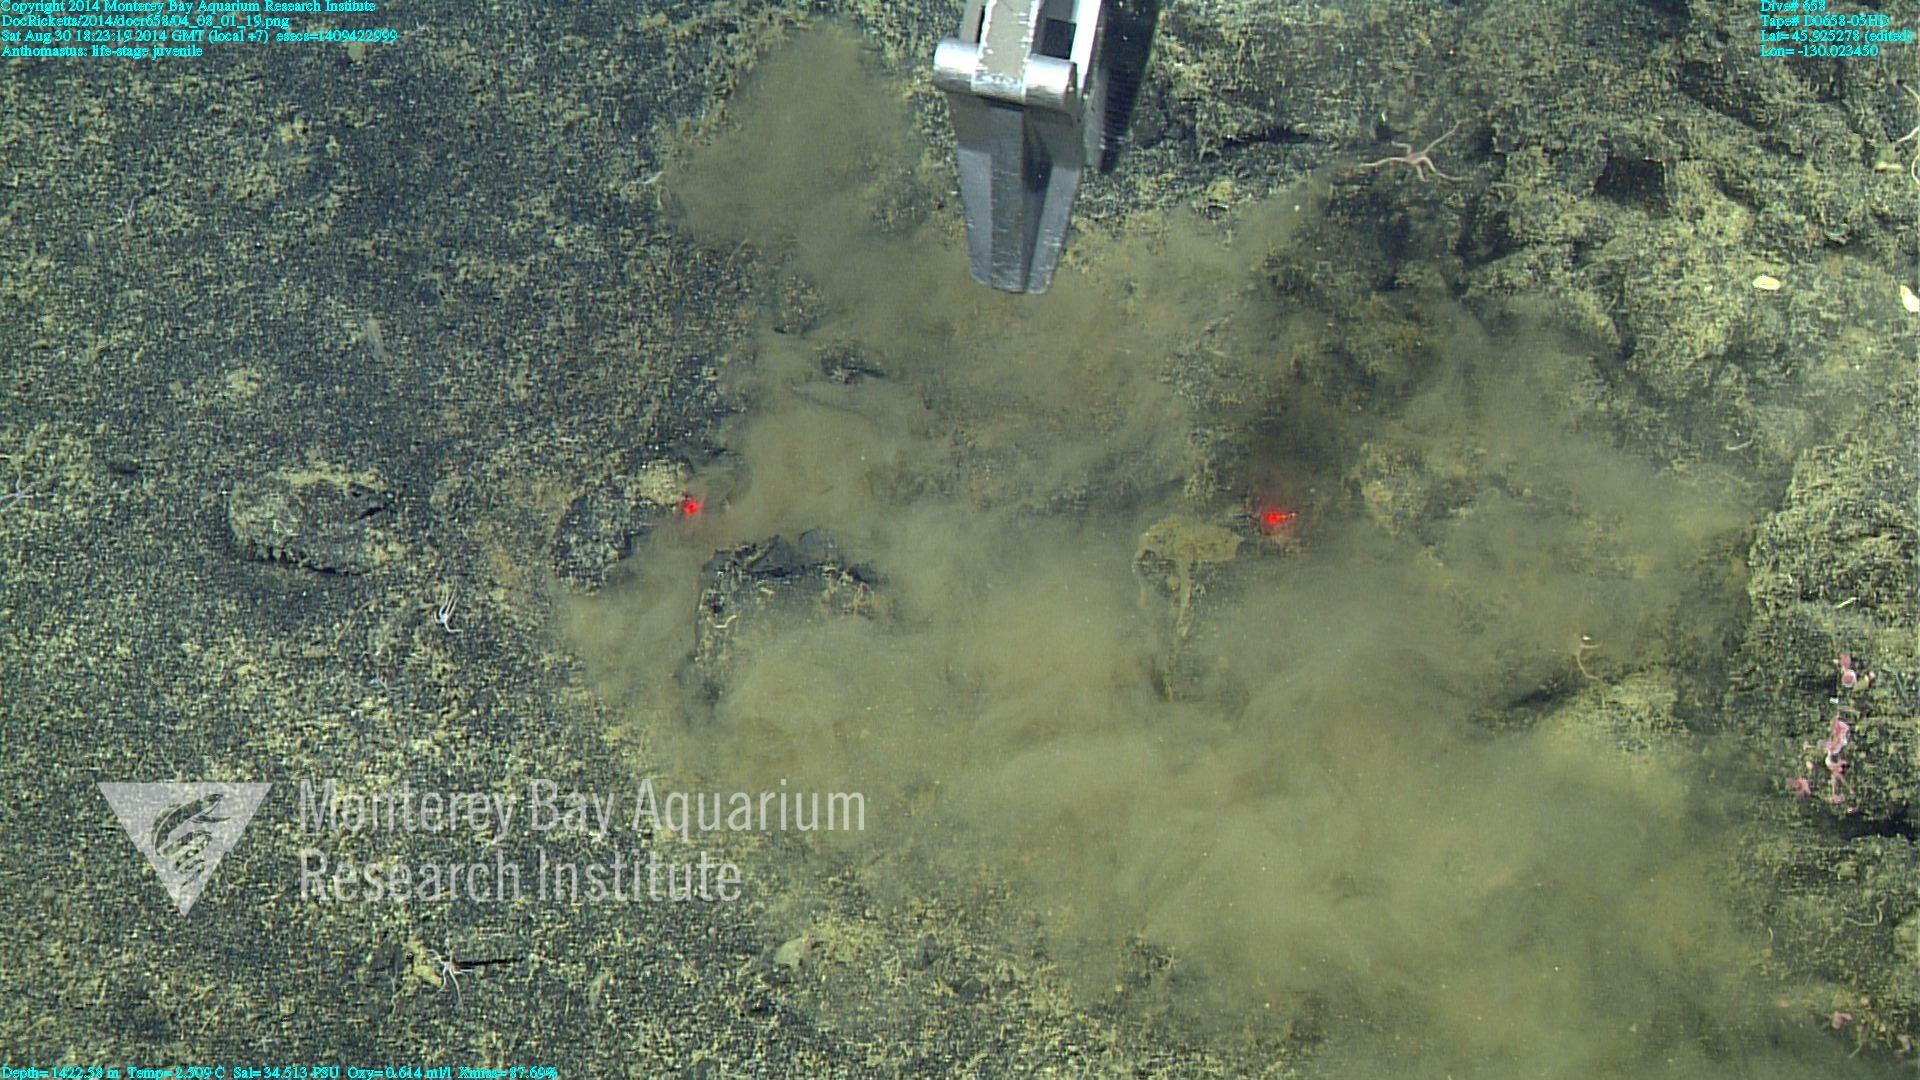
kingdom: Animalia
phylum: Cnidaria
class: Anthozoa
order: Scleralcyonacea
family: Coralliidae
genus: Heteropolypus
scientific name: Heteropolypus
